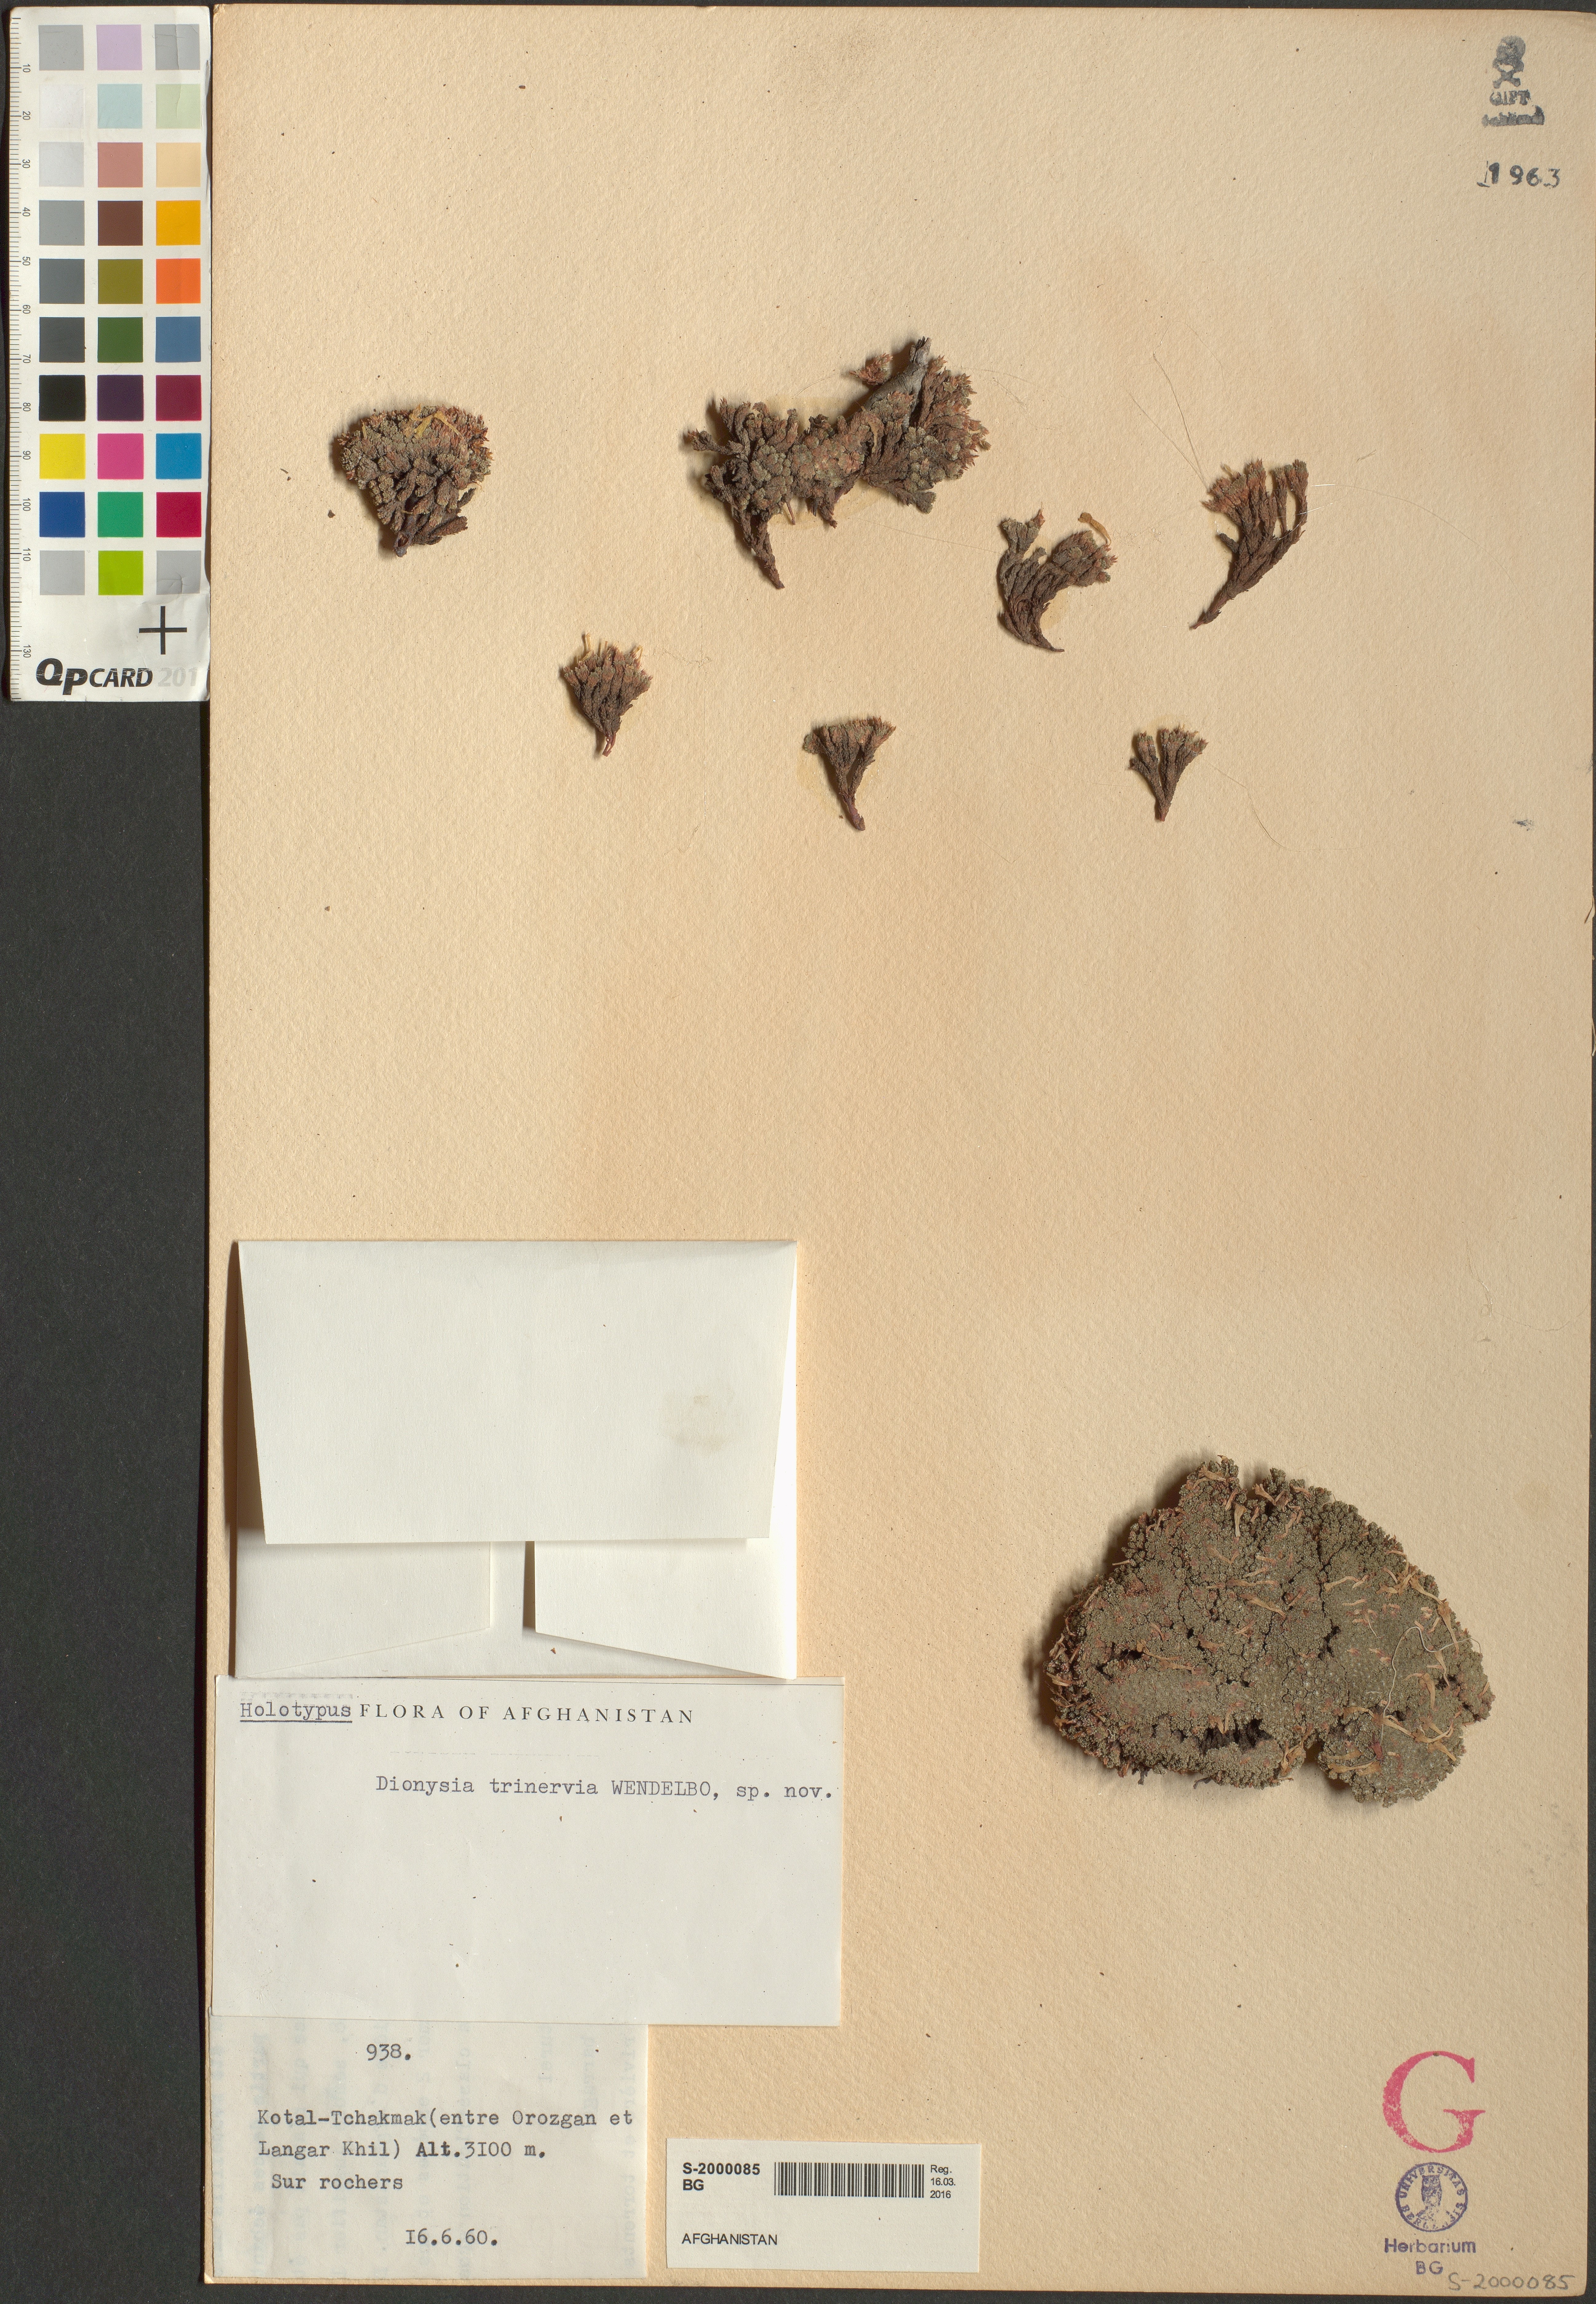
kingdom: Plantae
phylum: Tracheophyta
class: Magnoliopsida
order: Ericales
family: Primulaceae
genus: Dionysia
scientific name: Dionysia tapetodes
